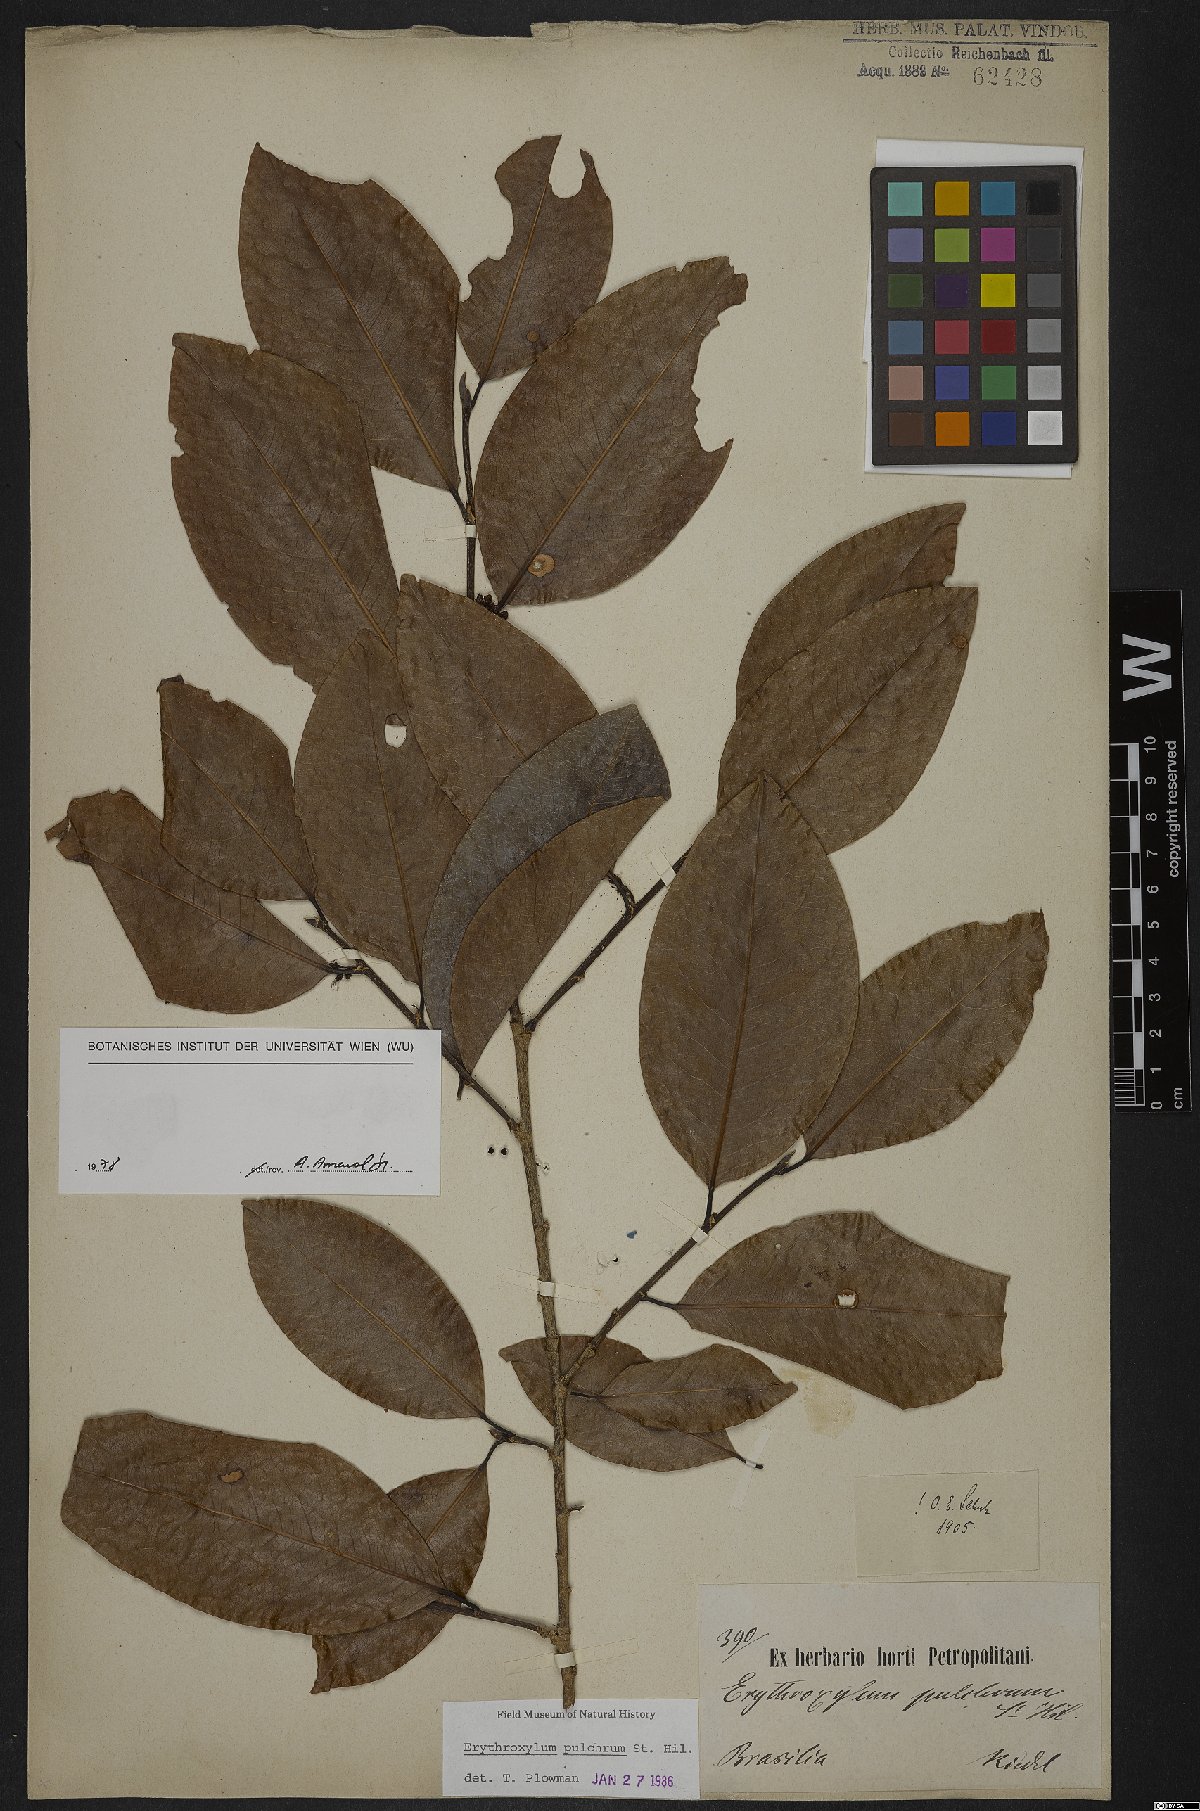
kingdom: Plantae
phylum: Tracheophyta
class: Magnoliopsida
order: Malpighiales
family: Erythroxylaceae
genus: Erythroxylum
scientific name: Erythroxylum pulchrum
